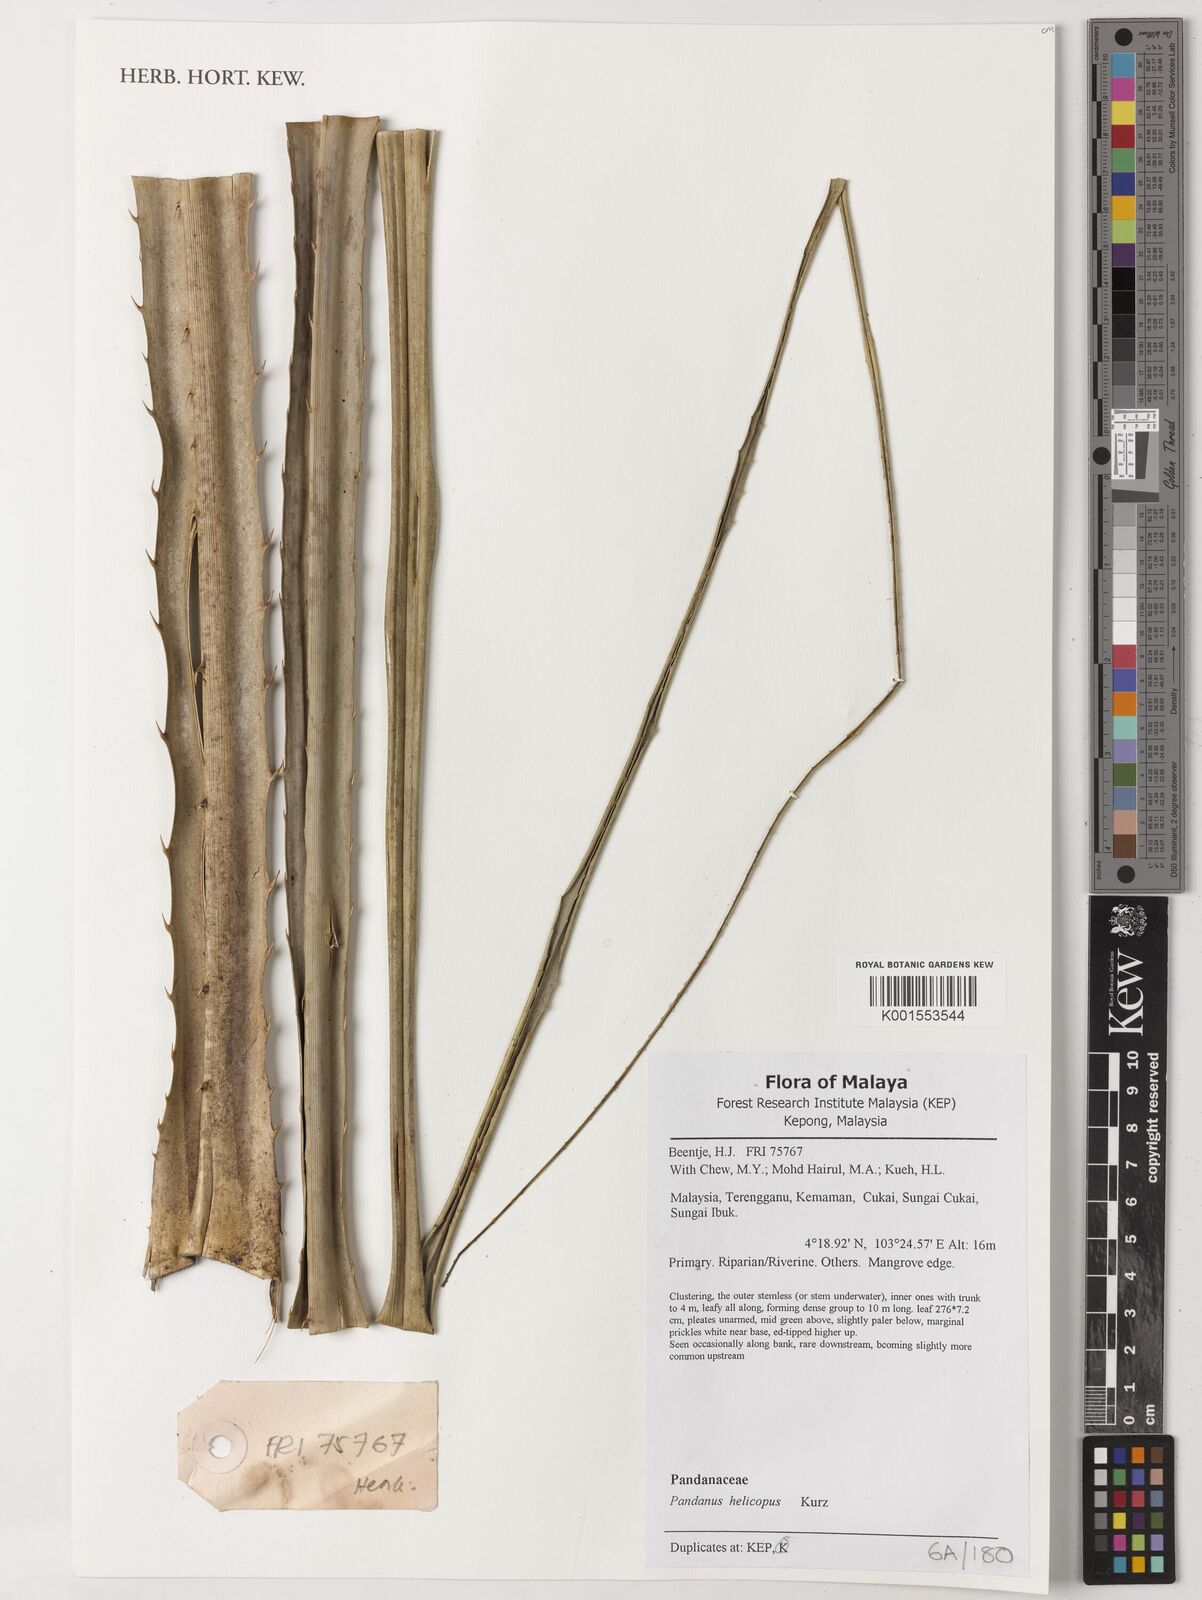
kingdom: Plantae
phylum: Tracheophyta
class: Liliopsida
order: Pandanales
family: Pandanaceae
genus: Pandanus
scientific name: Pandanus helicopus
